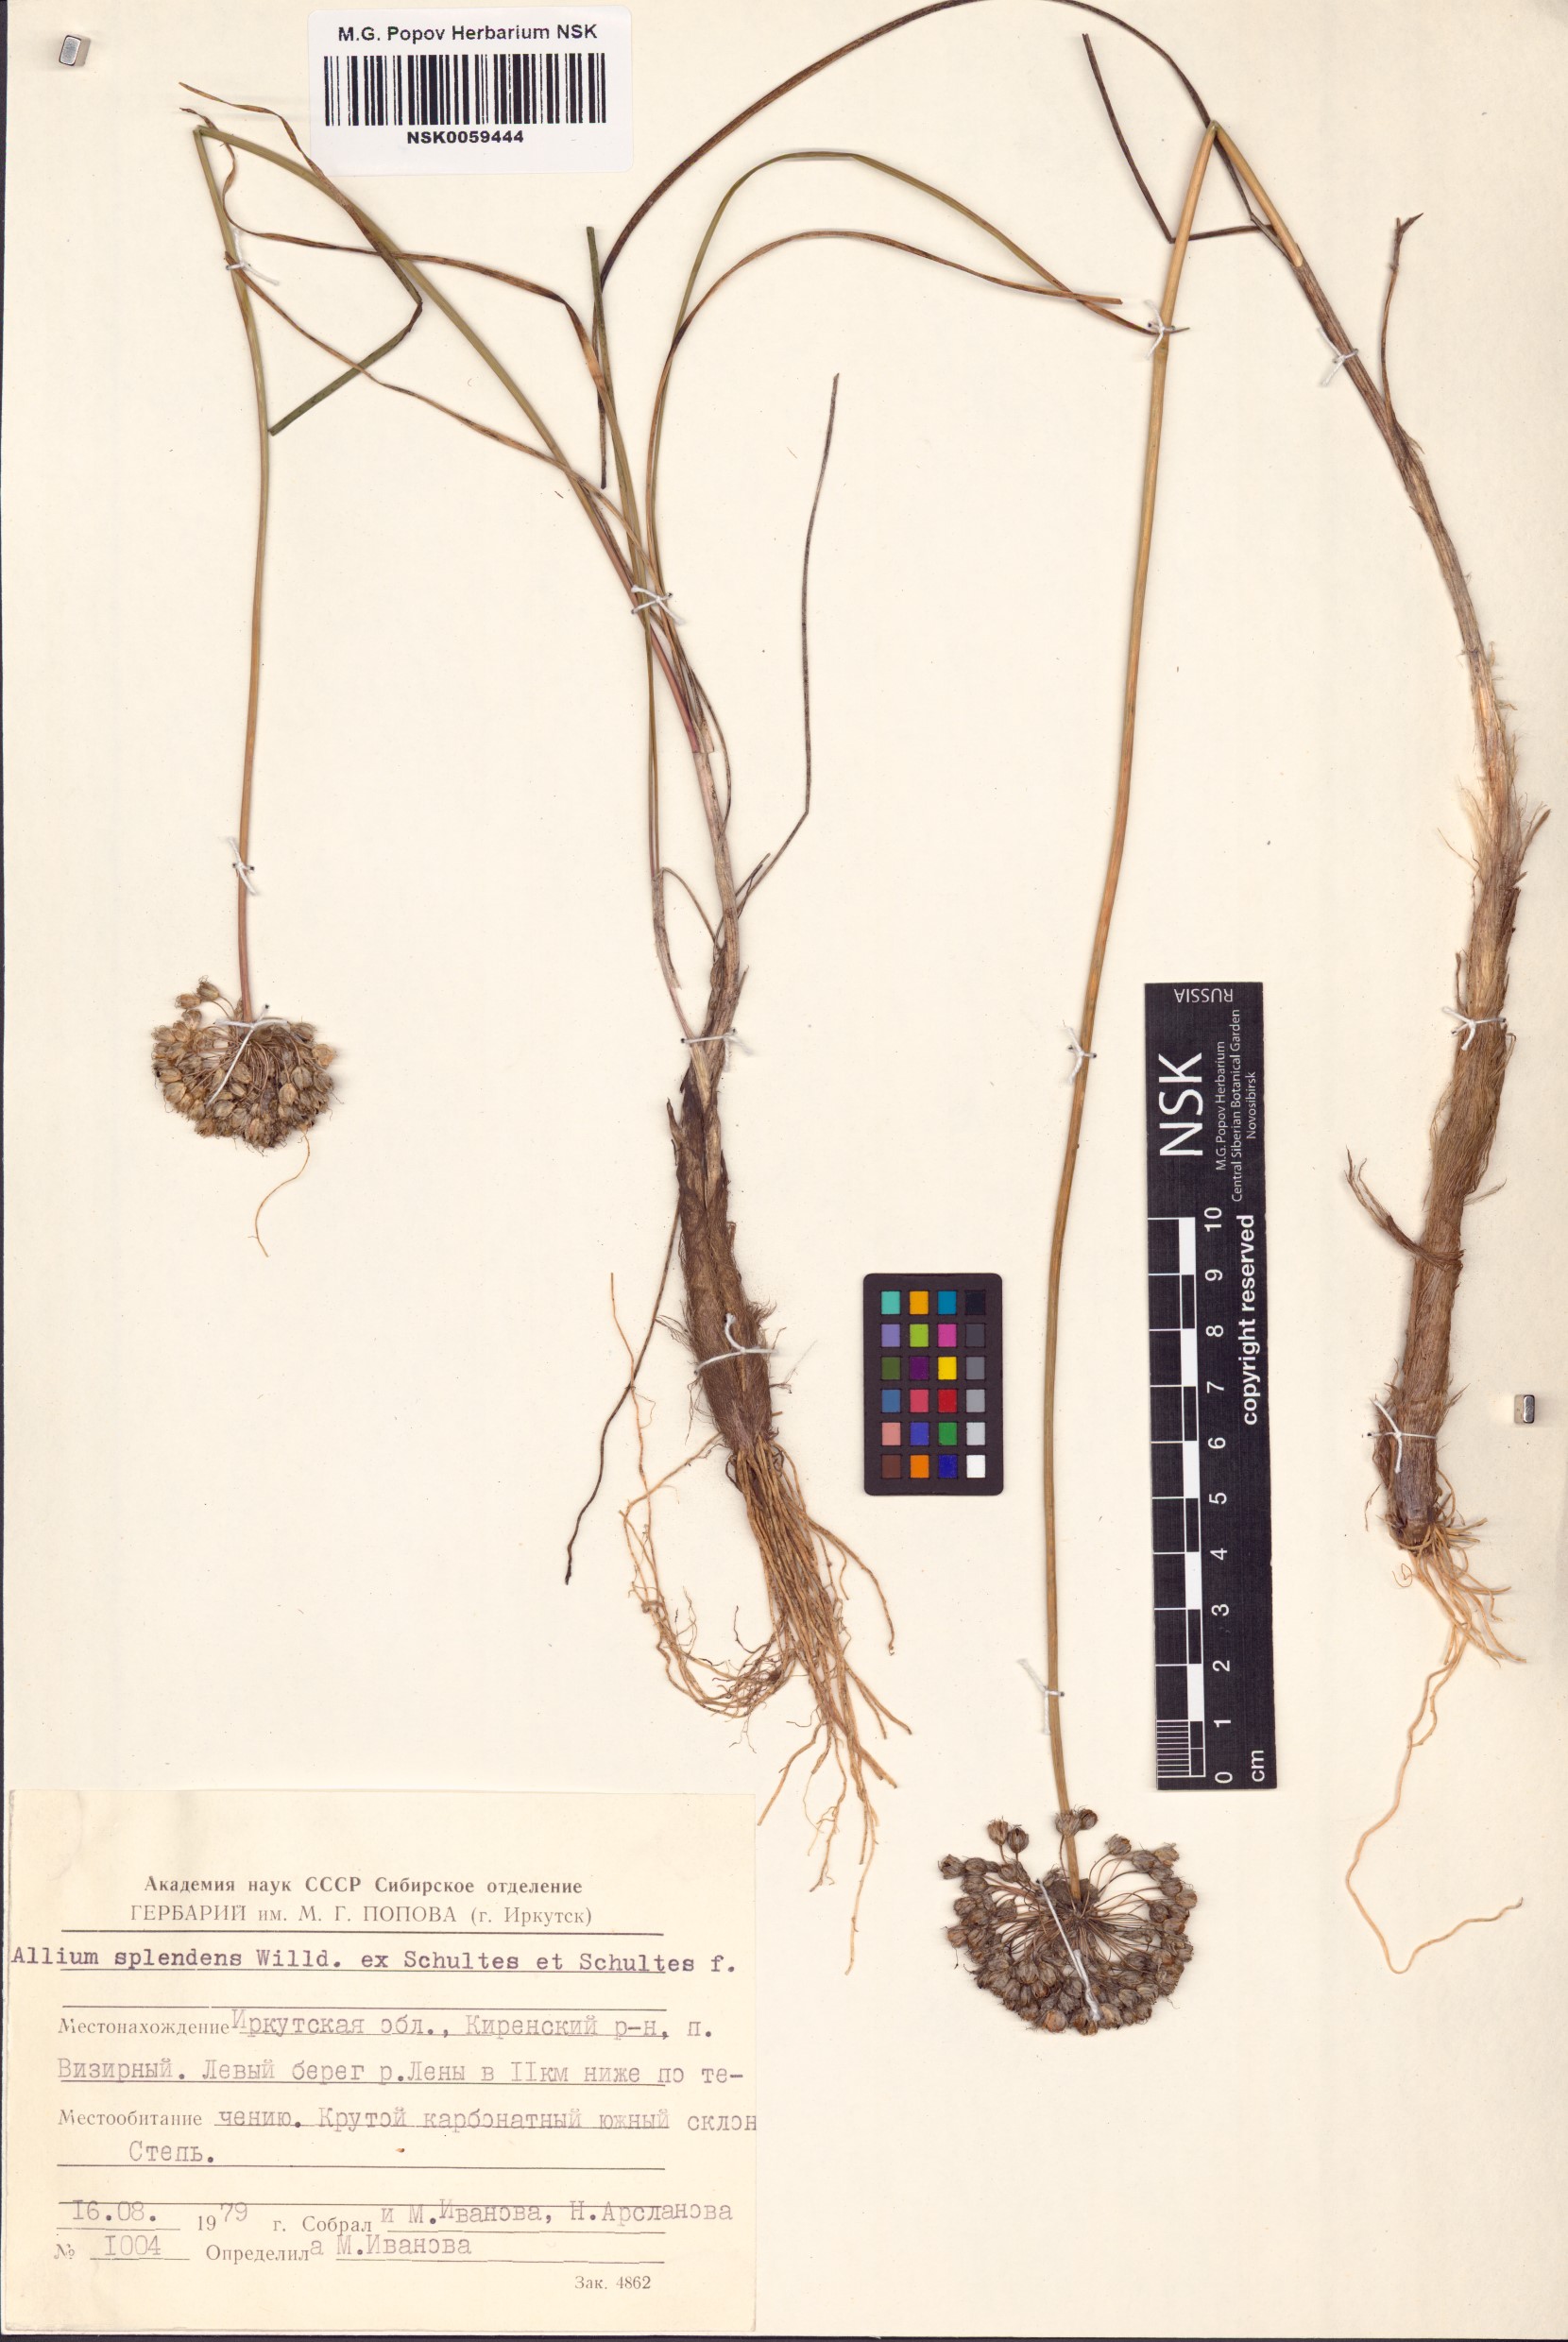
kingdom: Plantae
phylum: Tracheophyta
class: Liliopsida
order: Asparagales
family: Amaryllidaceae
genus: Allium
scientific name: Allium splendens
